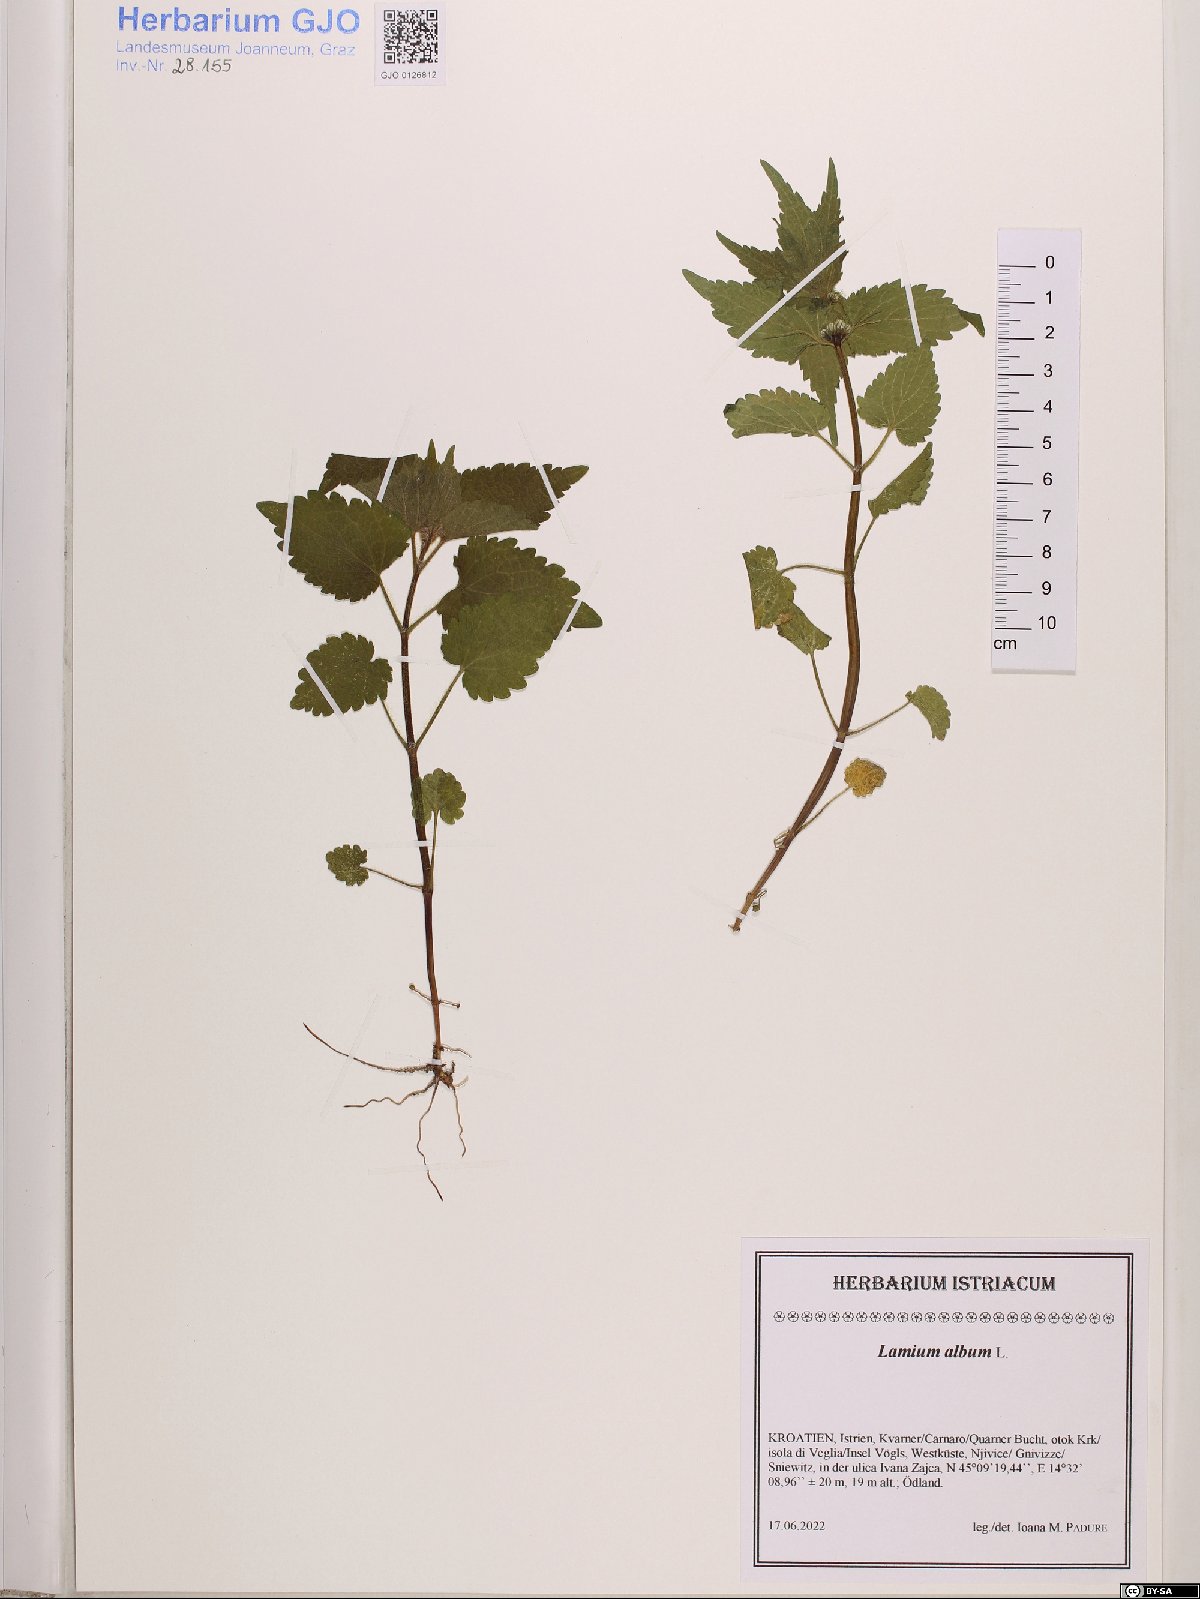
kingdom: Plantae
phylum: Tracheophyta
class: Magnoliopsida
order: Lamiales
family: Lamiaceae
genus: Lamium
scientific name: Lamium album
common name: White dead-nettle
